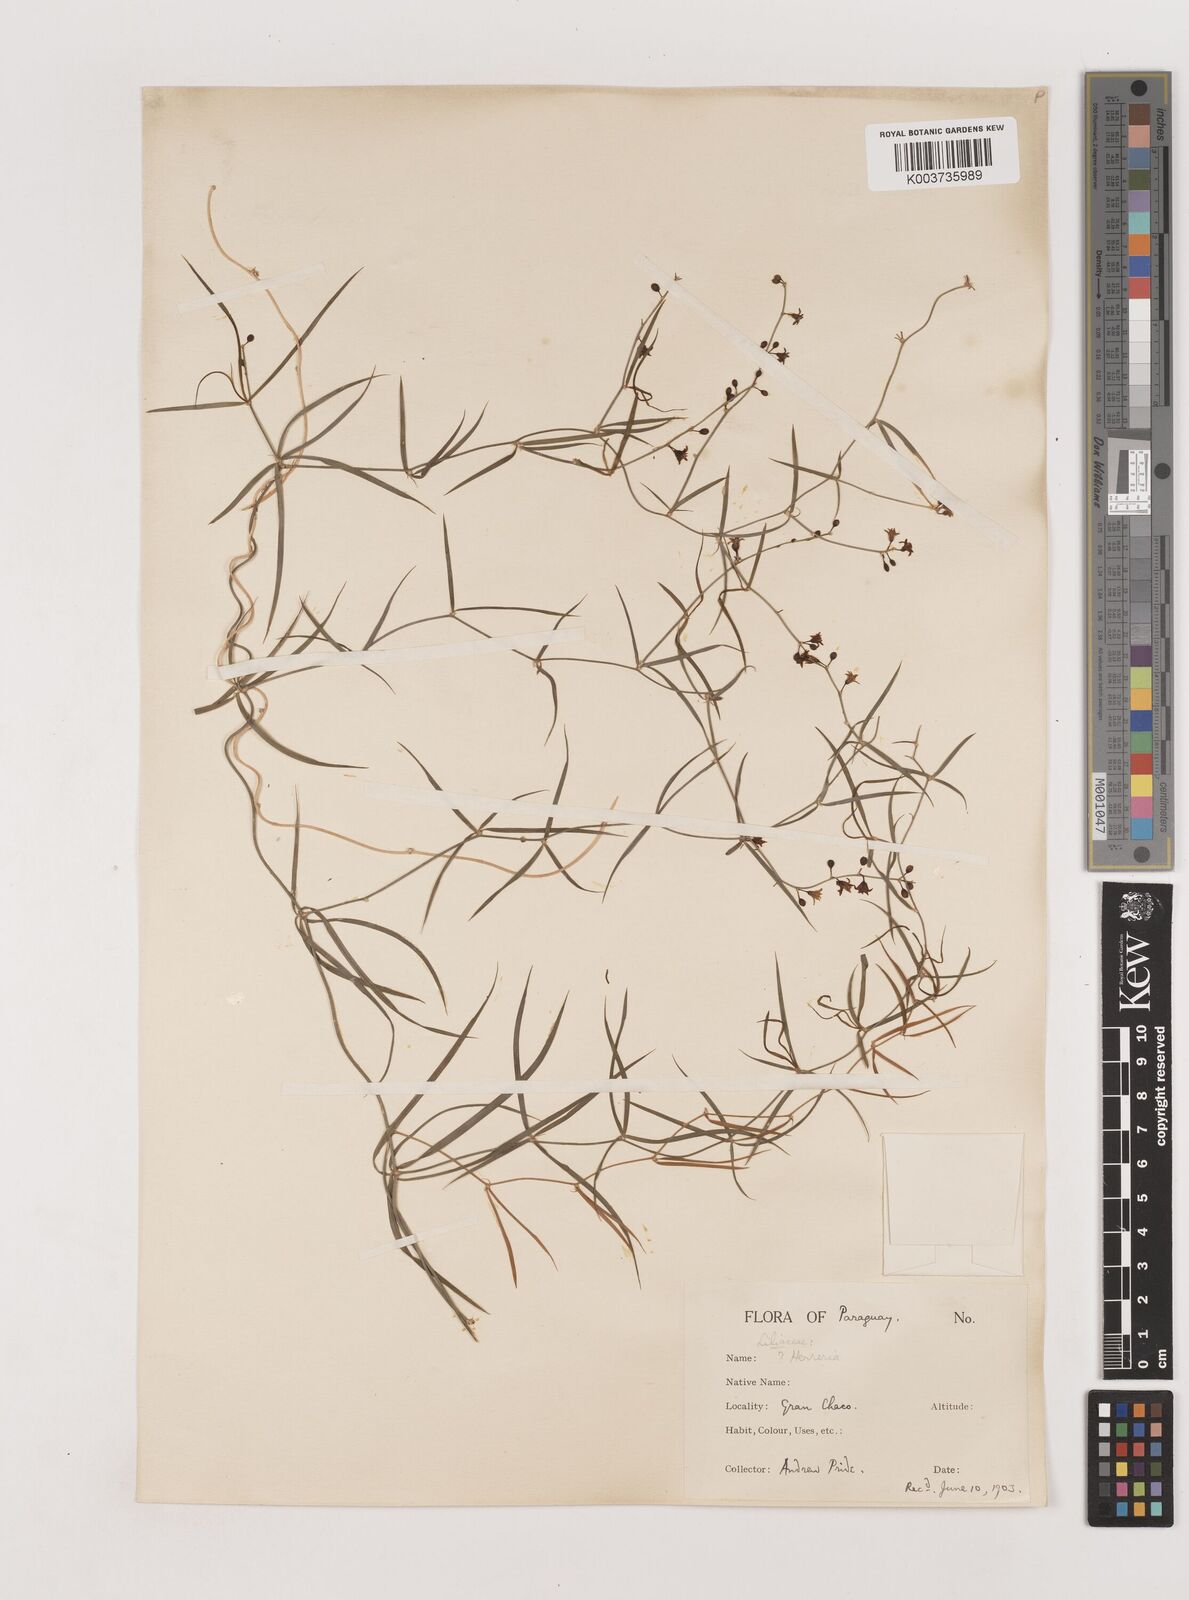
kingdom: Plantae
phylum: Tracheophyta
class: Liliopsida
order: Asparagales
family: Asparagaceae
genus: Herreria
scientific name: Herreria bonplandii
